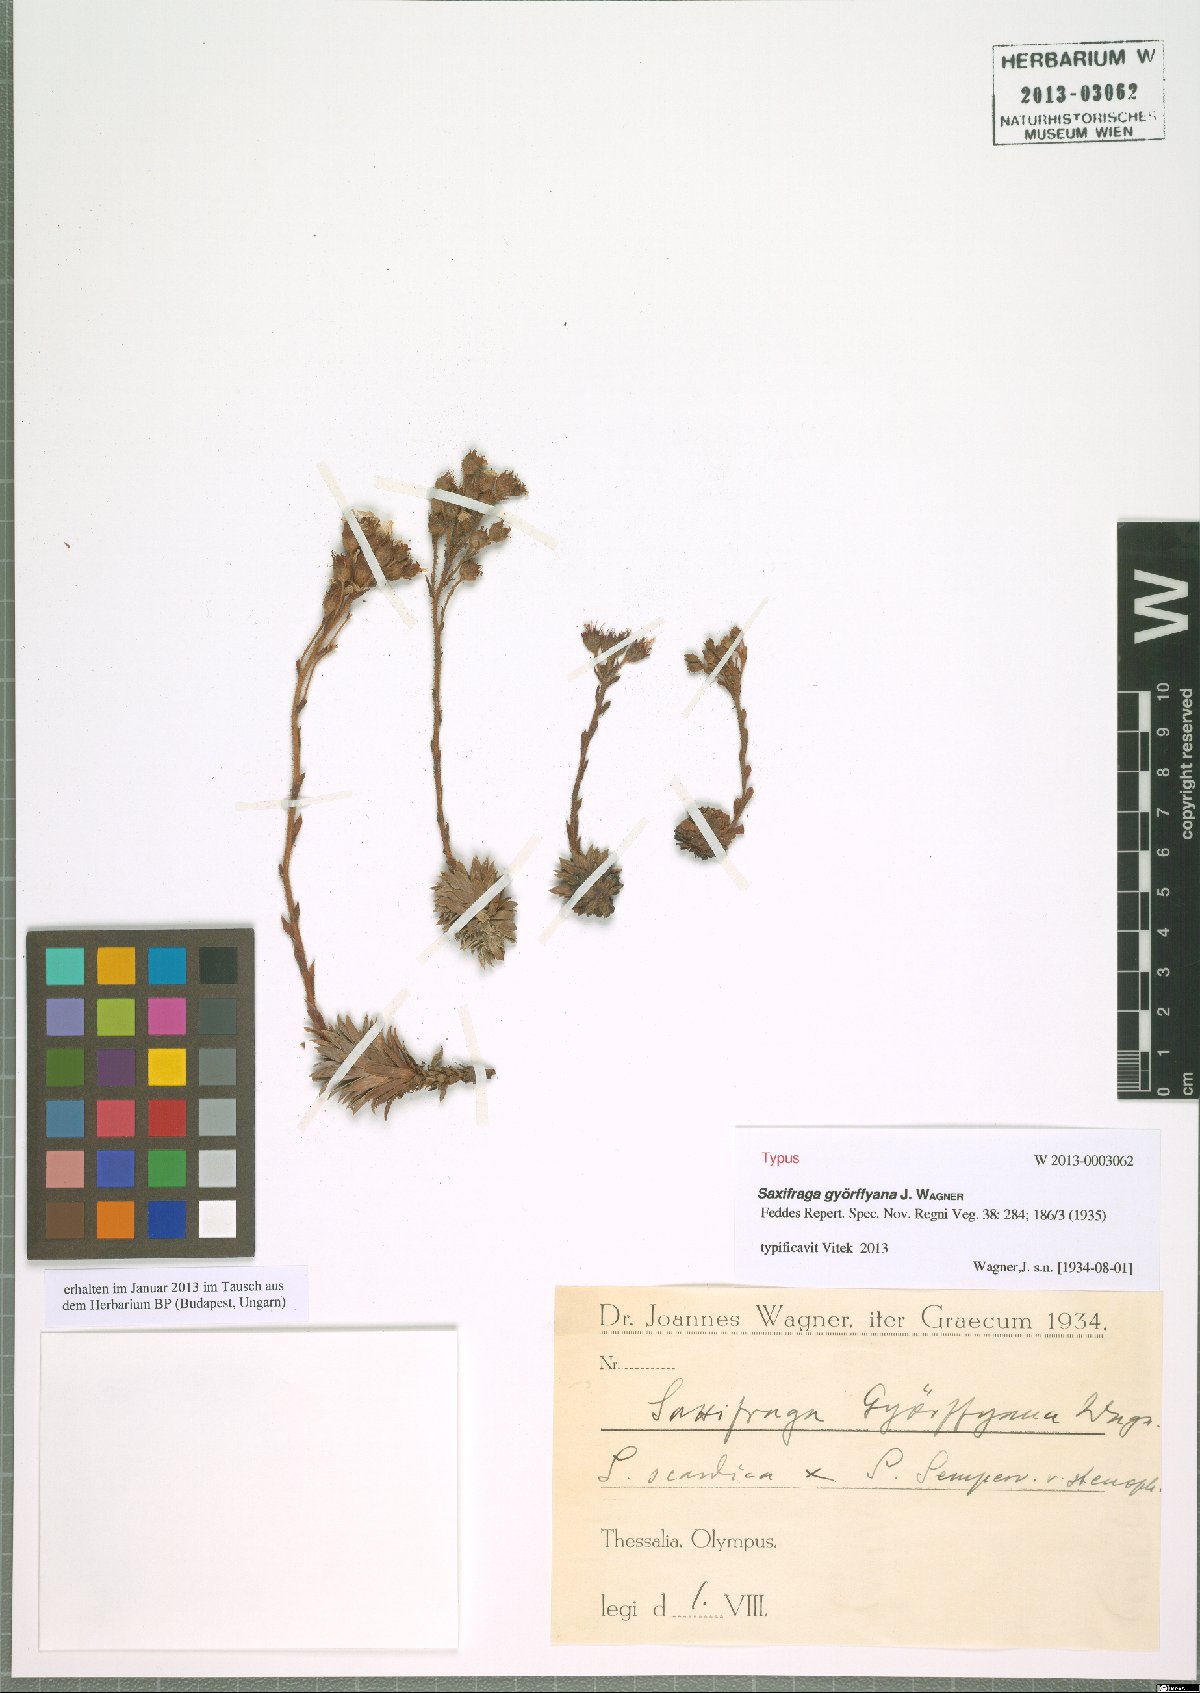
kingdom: Plantae
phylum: Tracheophyta
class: Magnoliopsida
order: Saxifragales
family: Saxifragaceae
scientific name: Saxifragaceae
